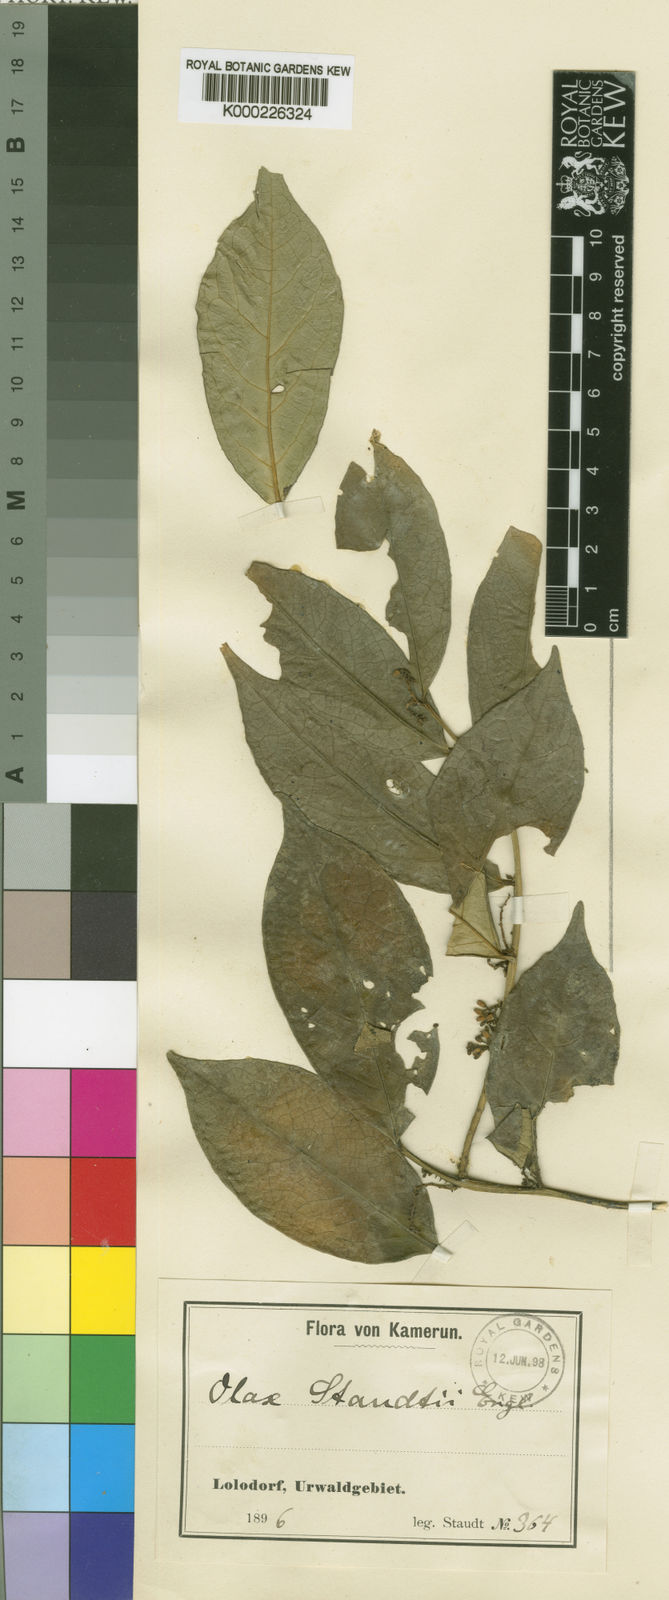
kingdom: Plantae
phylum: Tracheophyta
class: Magnoliopsida
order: Santalales
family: Olacaceae
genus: Olax
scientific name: Olax staudtii
